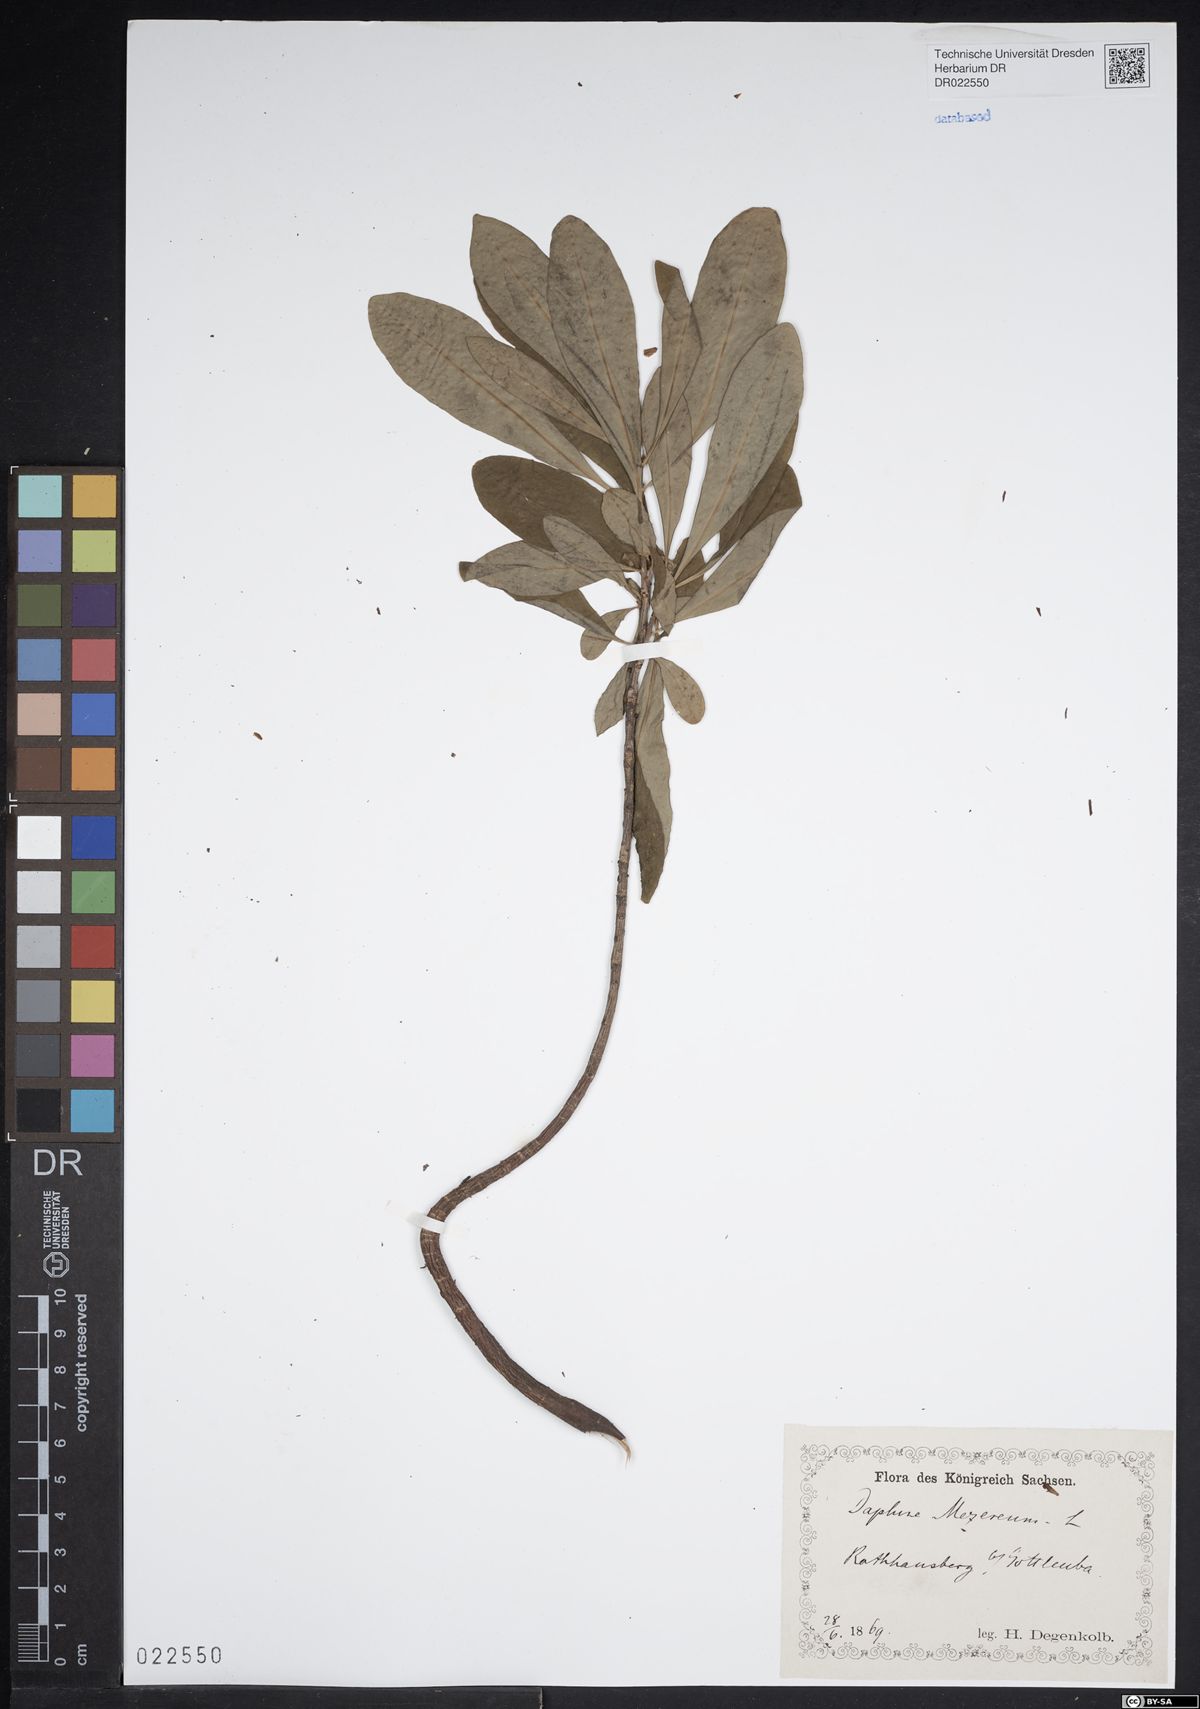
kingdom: Plantae
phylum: Tracheophyta
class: Magnoliopsida
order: Malvales
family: Thymelaeaceae
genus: Daphne
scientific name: Daphne mezereum
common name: Mezereon
